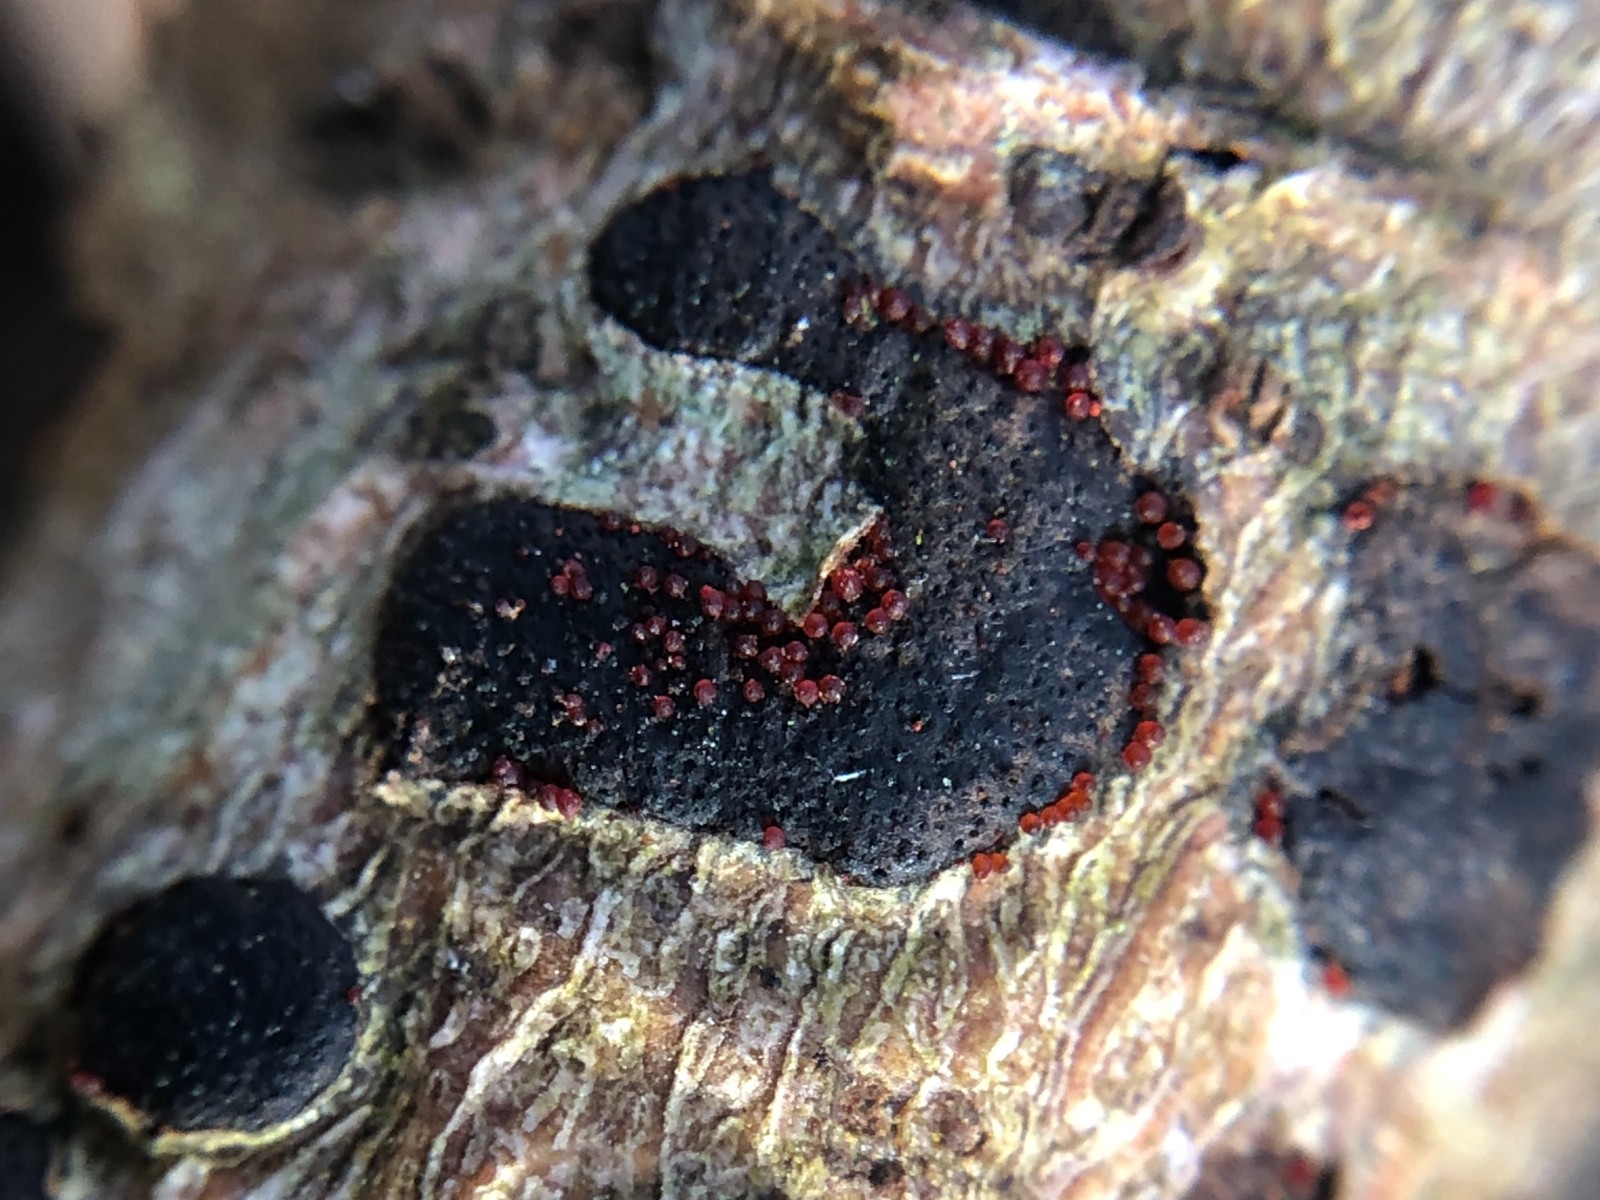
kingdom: Fungi
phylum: Ascomycota
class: Sordariomycetes
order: Hypocreales
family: Nectriaceae
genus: Dialonectria
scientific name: Dialonectria diatrypicola
